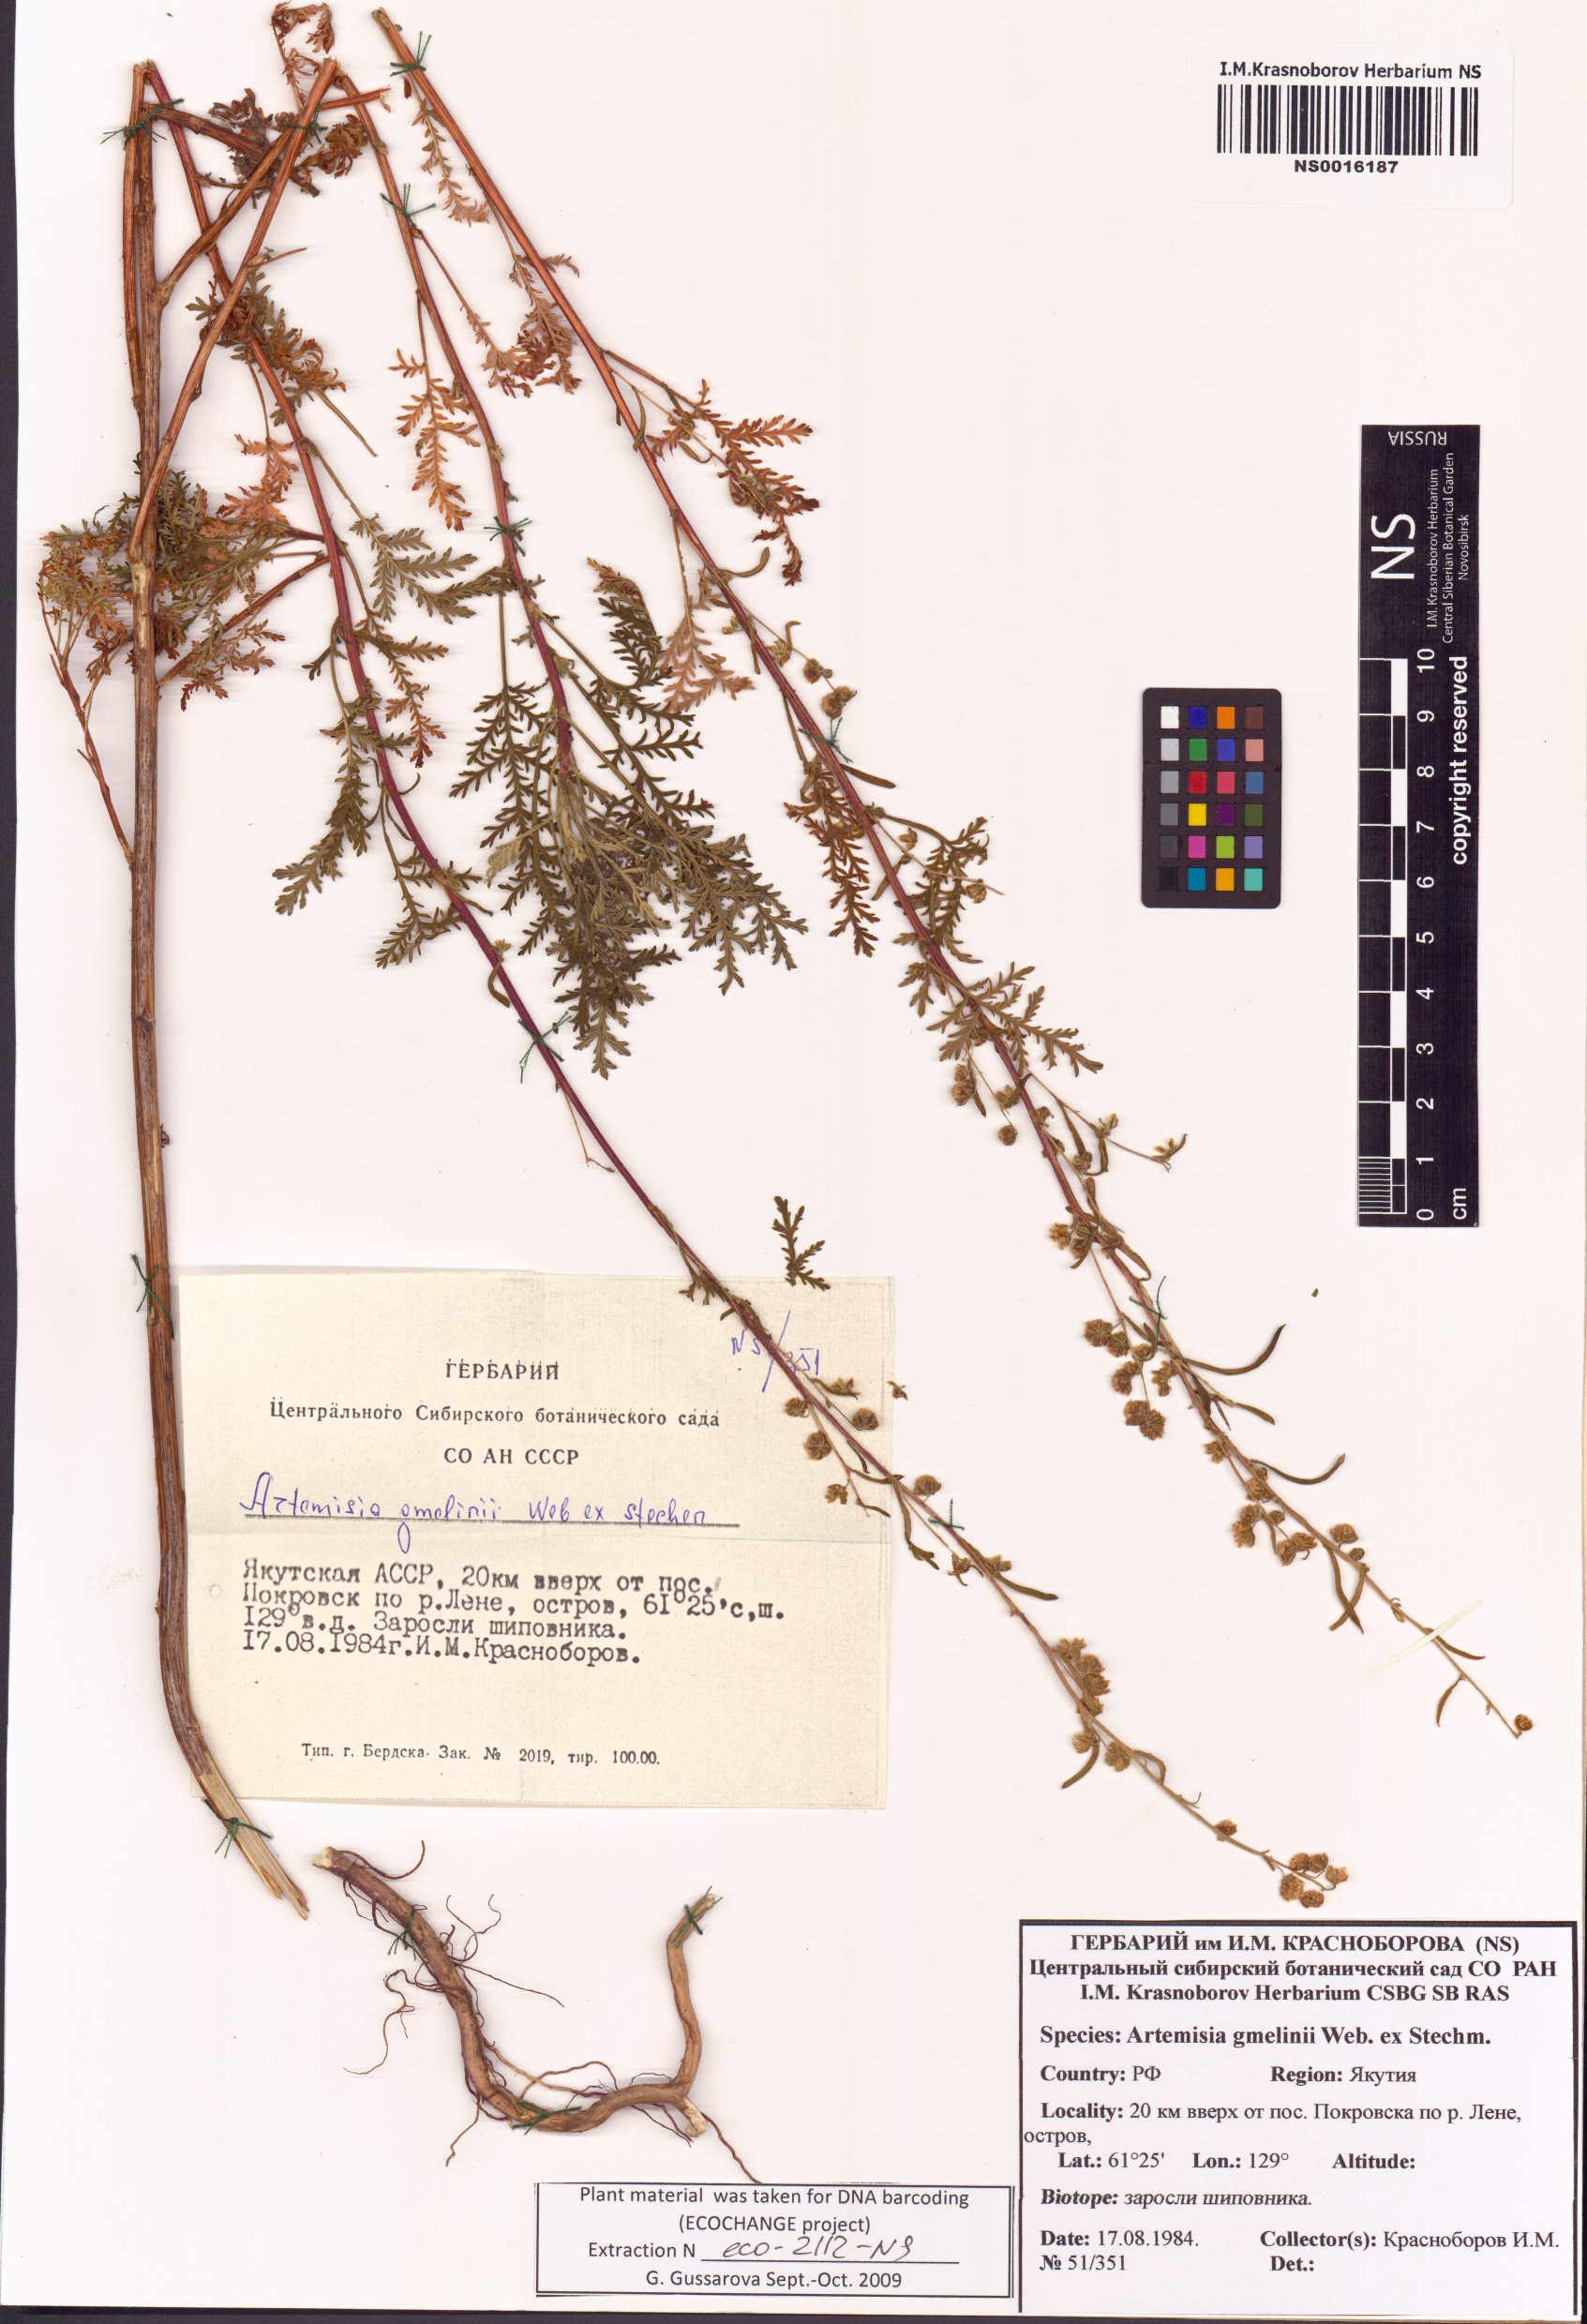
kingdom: Plantae
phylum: Tracheophyta
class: Magnoliopsida
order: Asterales
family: Asteraceae
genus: Artemisia
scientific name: Artemisia gmelinii
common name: Gmelin's wormwood
